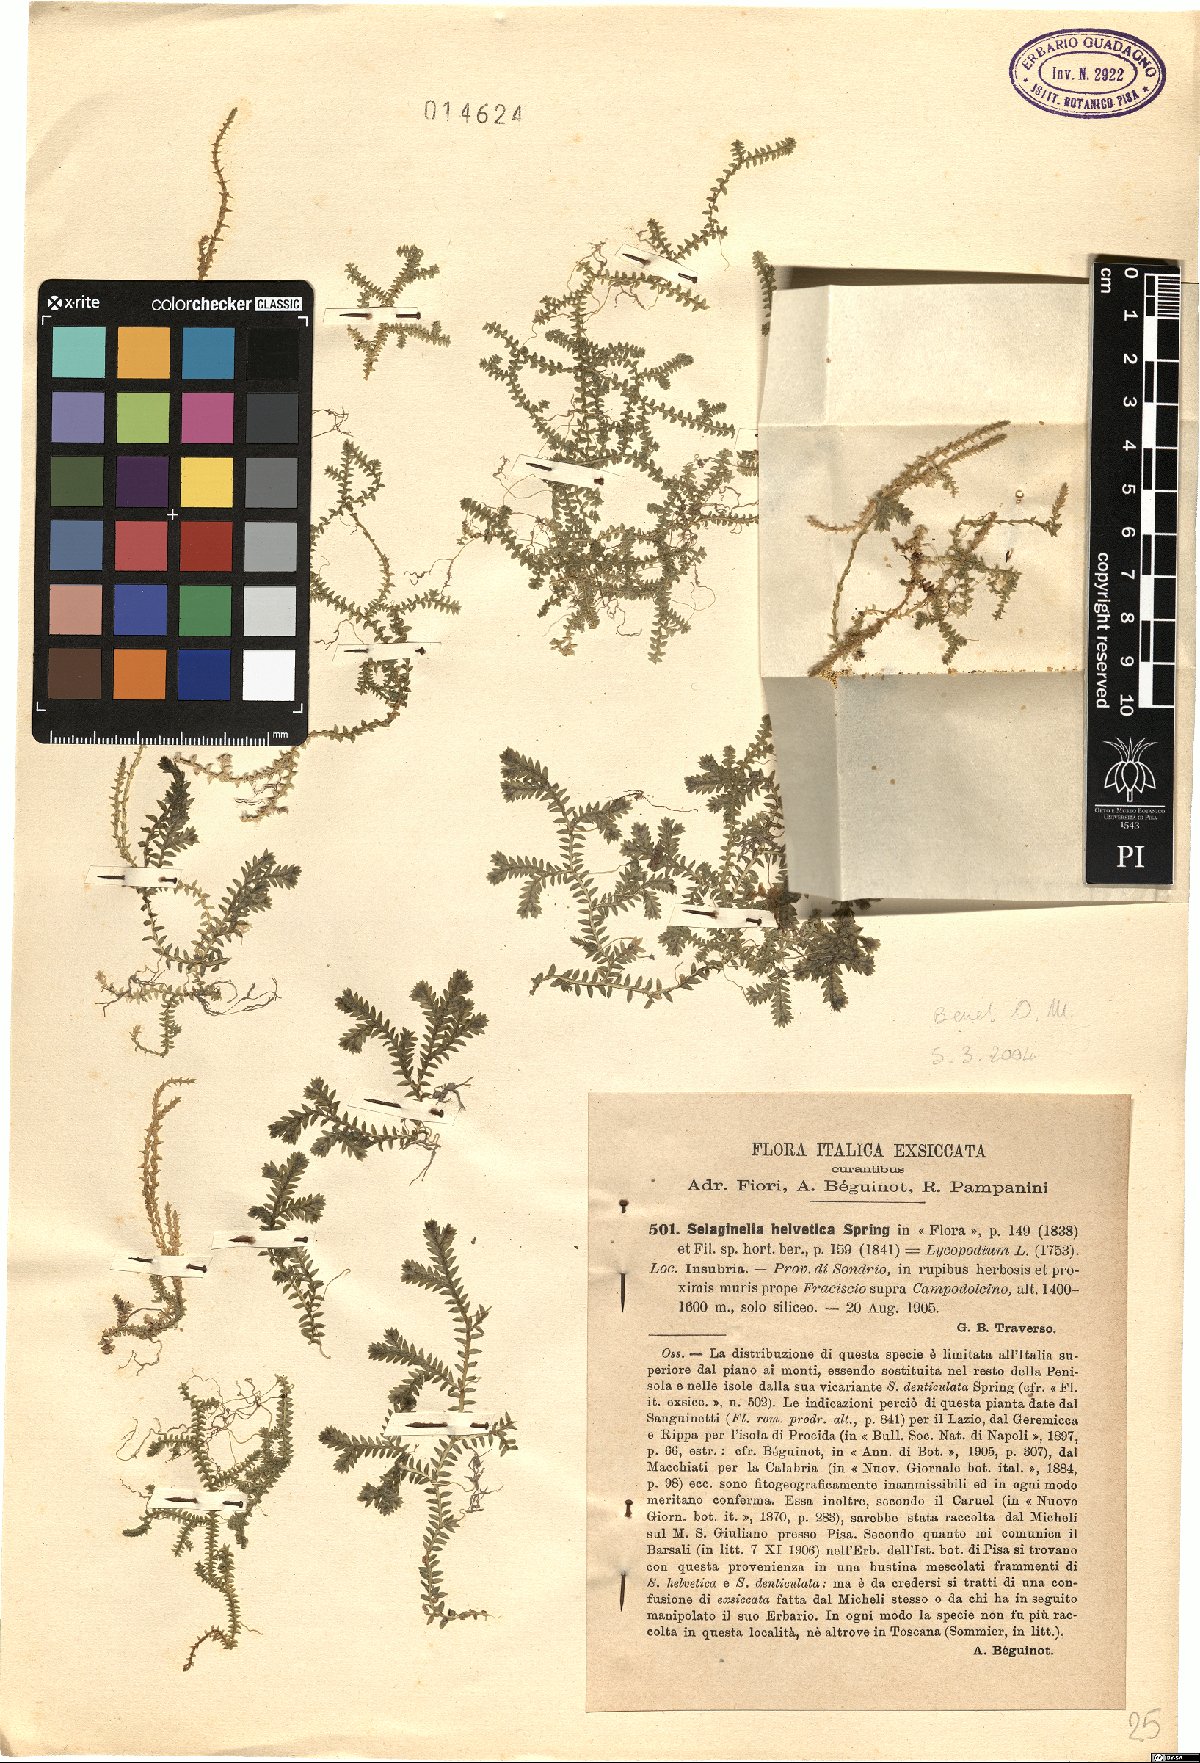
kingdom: Plantae
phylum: Tracheophyta
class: Lycopodiopsida
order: Selaginellales
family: Selaginellaceae
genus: Selaginella
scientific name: Selaginella helvetica
